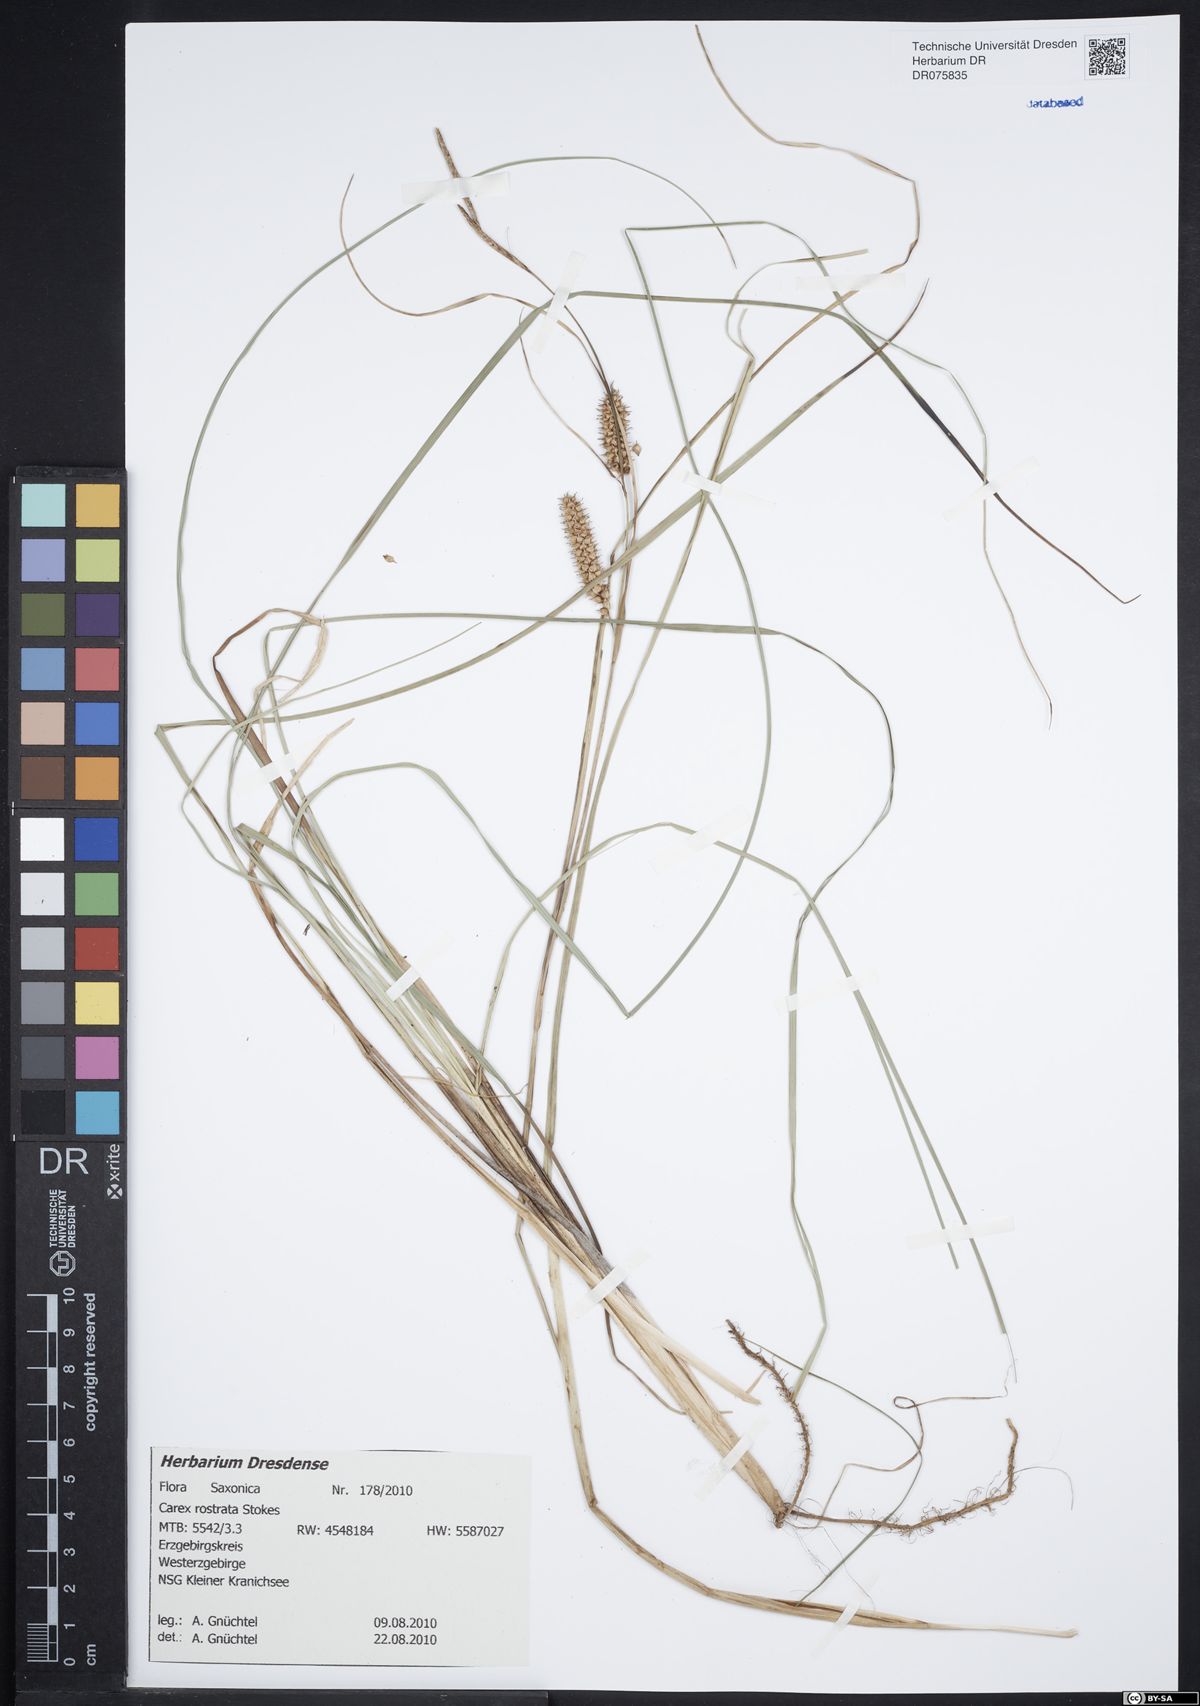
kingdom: Plantae
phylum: Tracheophyta
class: Liliopsida
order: Poales
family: Cyperaceae
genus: Carex
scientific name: Carex rostrata
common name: Bottle sedge
